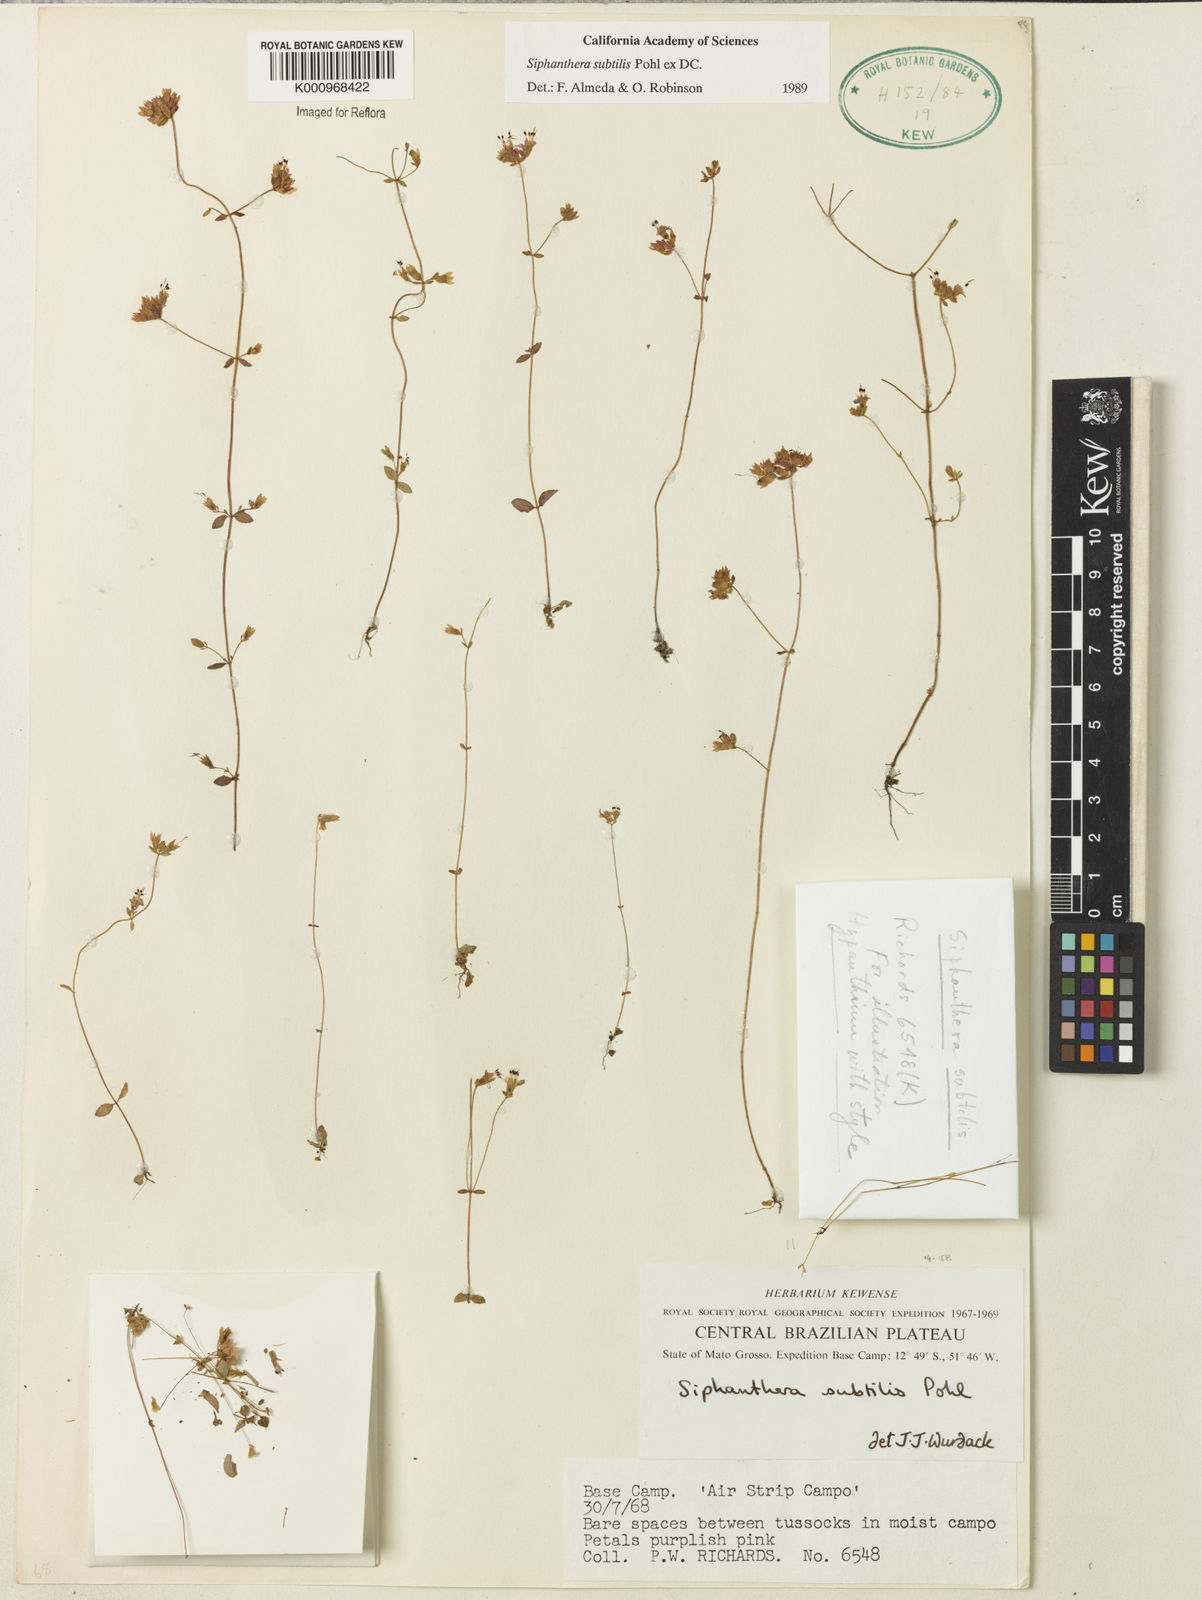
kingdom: Plantae
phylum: Tracheophyta
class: Magnoliopsida
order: Myrtales
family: Melastomataceae
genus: Siphanthera
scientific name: Siphanthera
